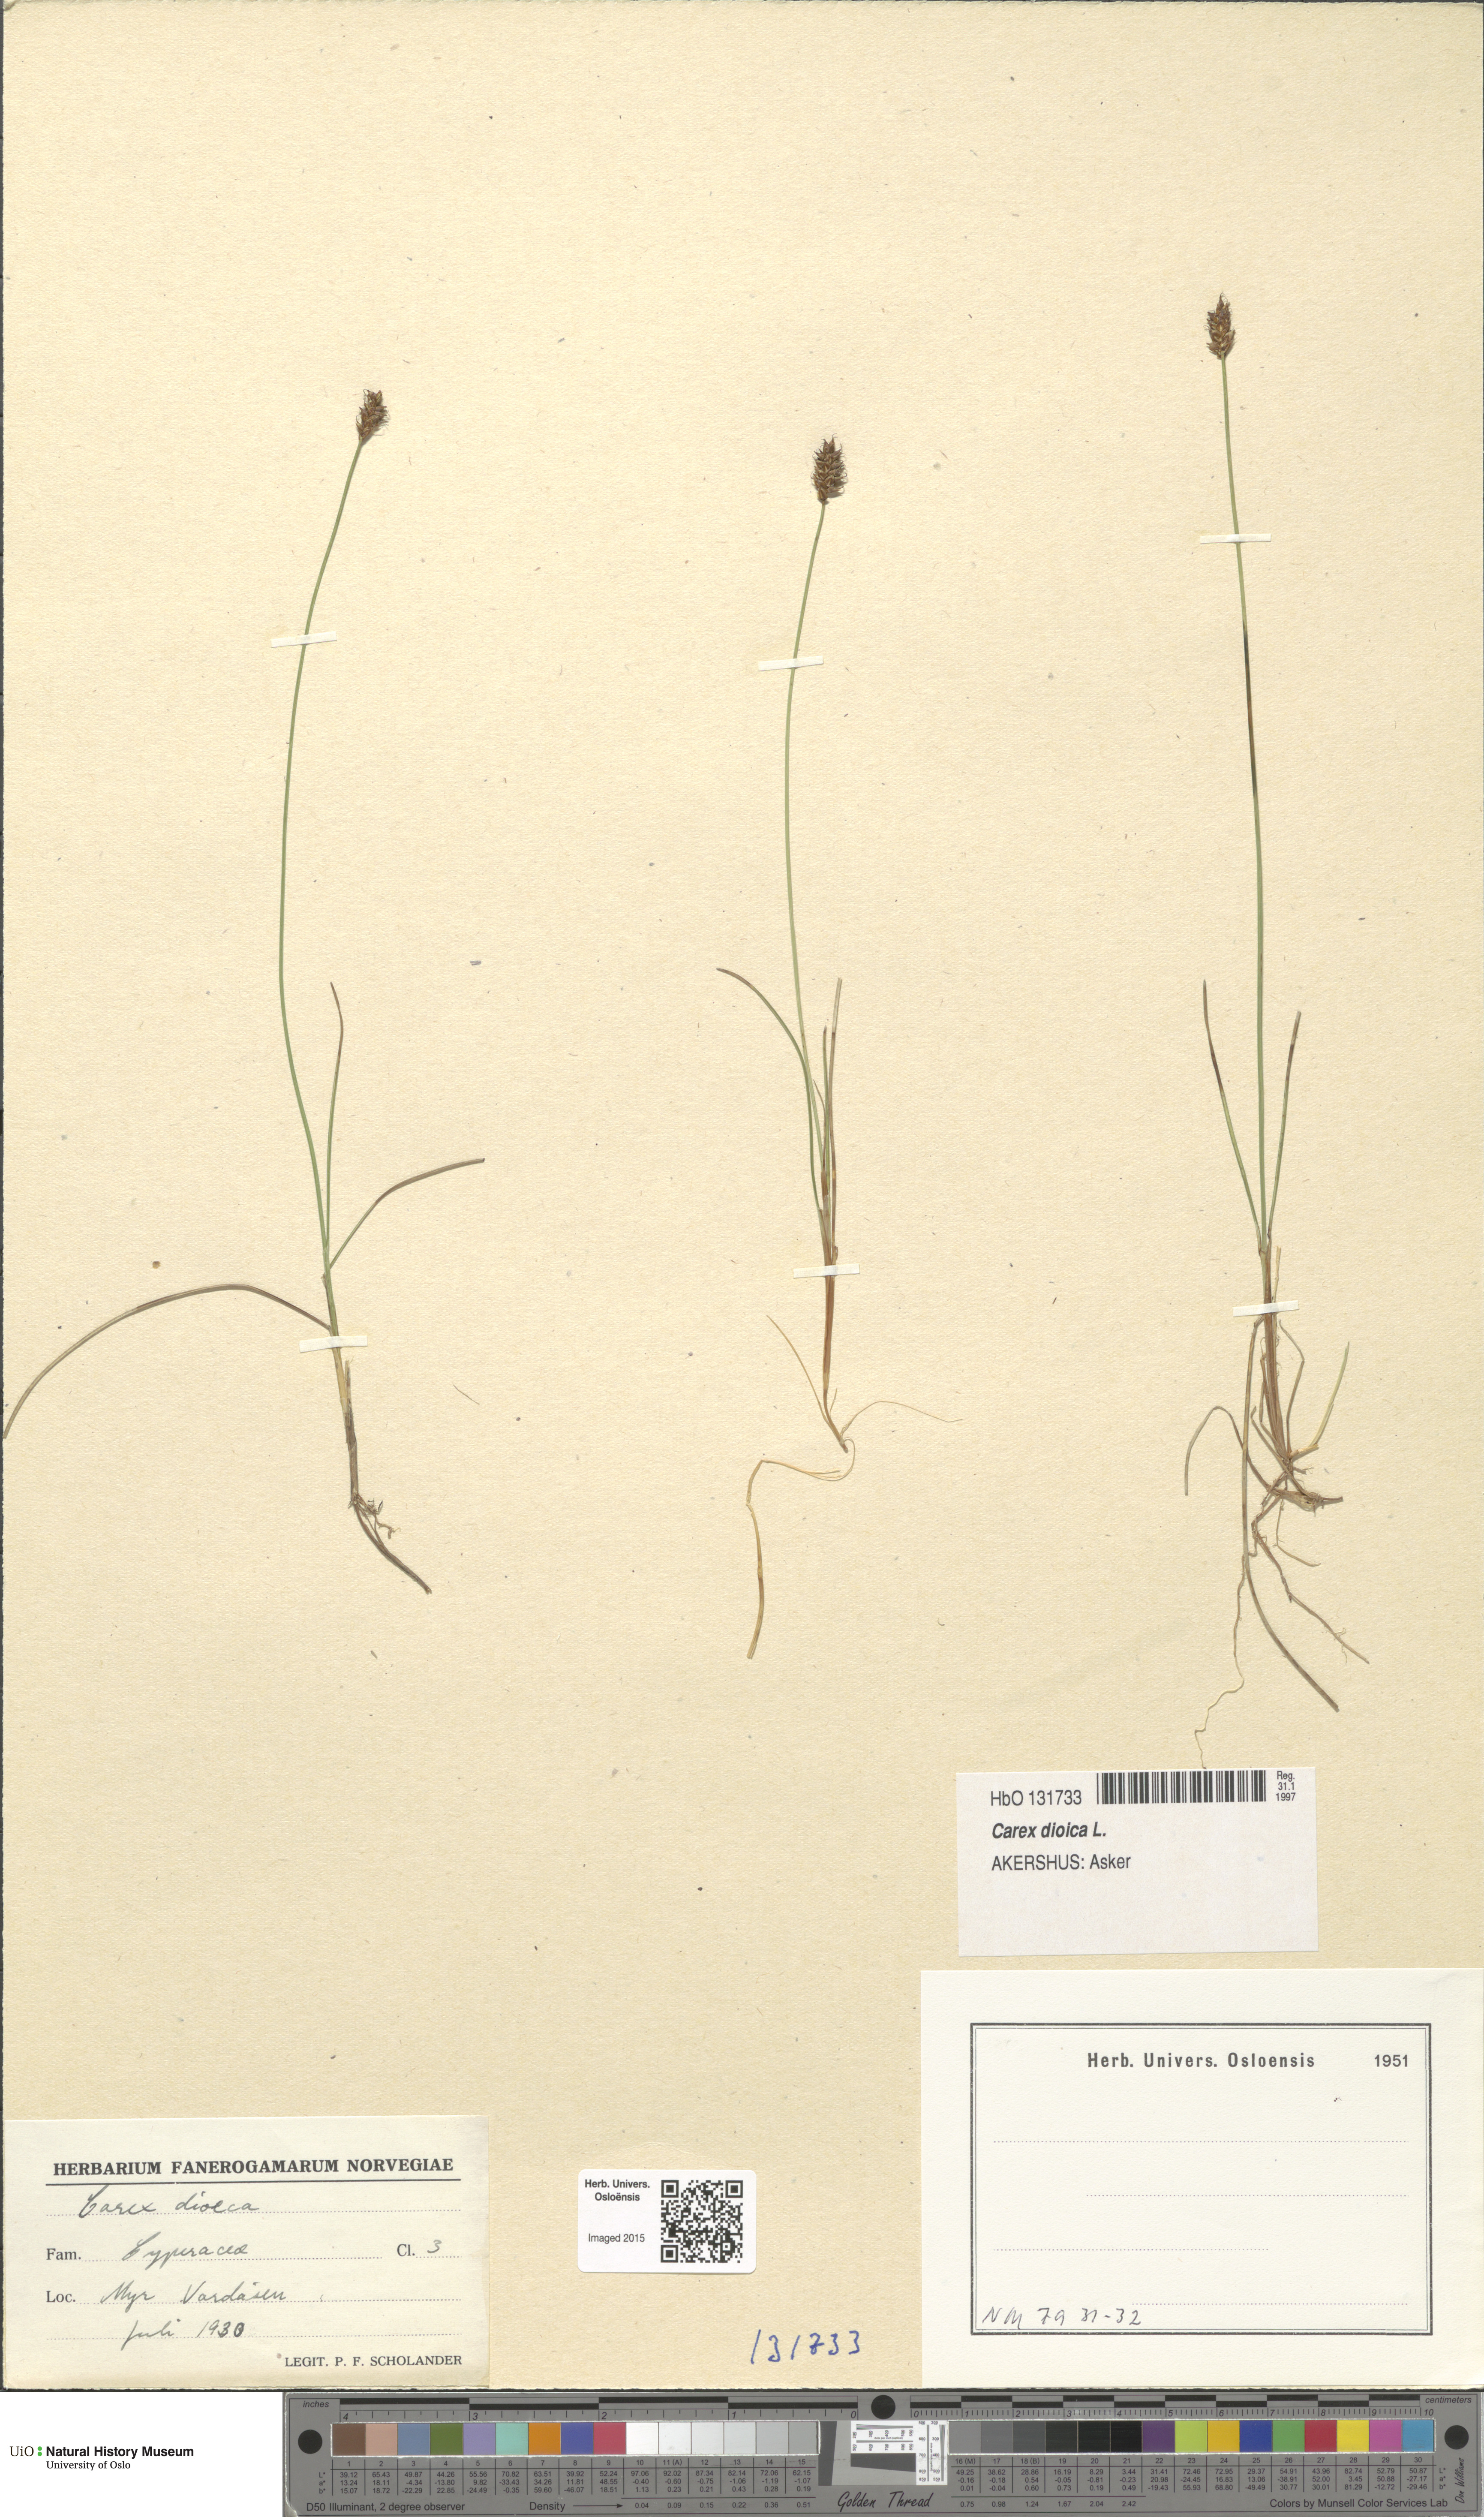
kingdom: Plantae
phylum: Tracheophyta
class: Liliopsida
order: Poales
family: Cyperaceae
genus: Carex
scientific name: Carex dioica
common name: Dioecious sedge
